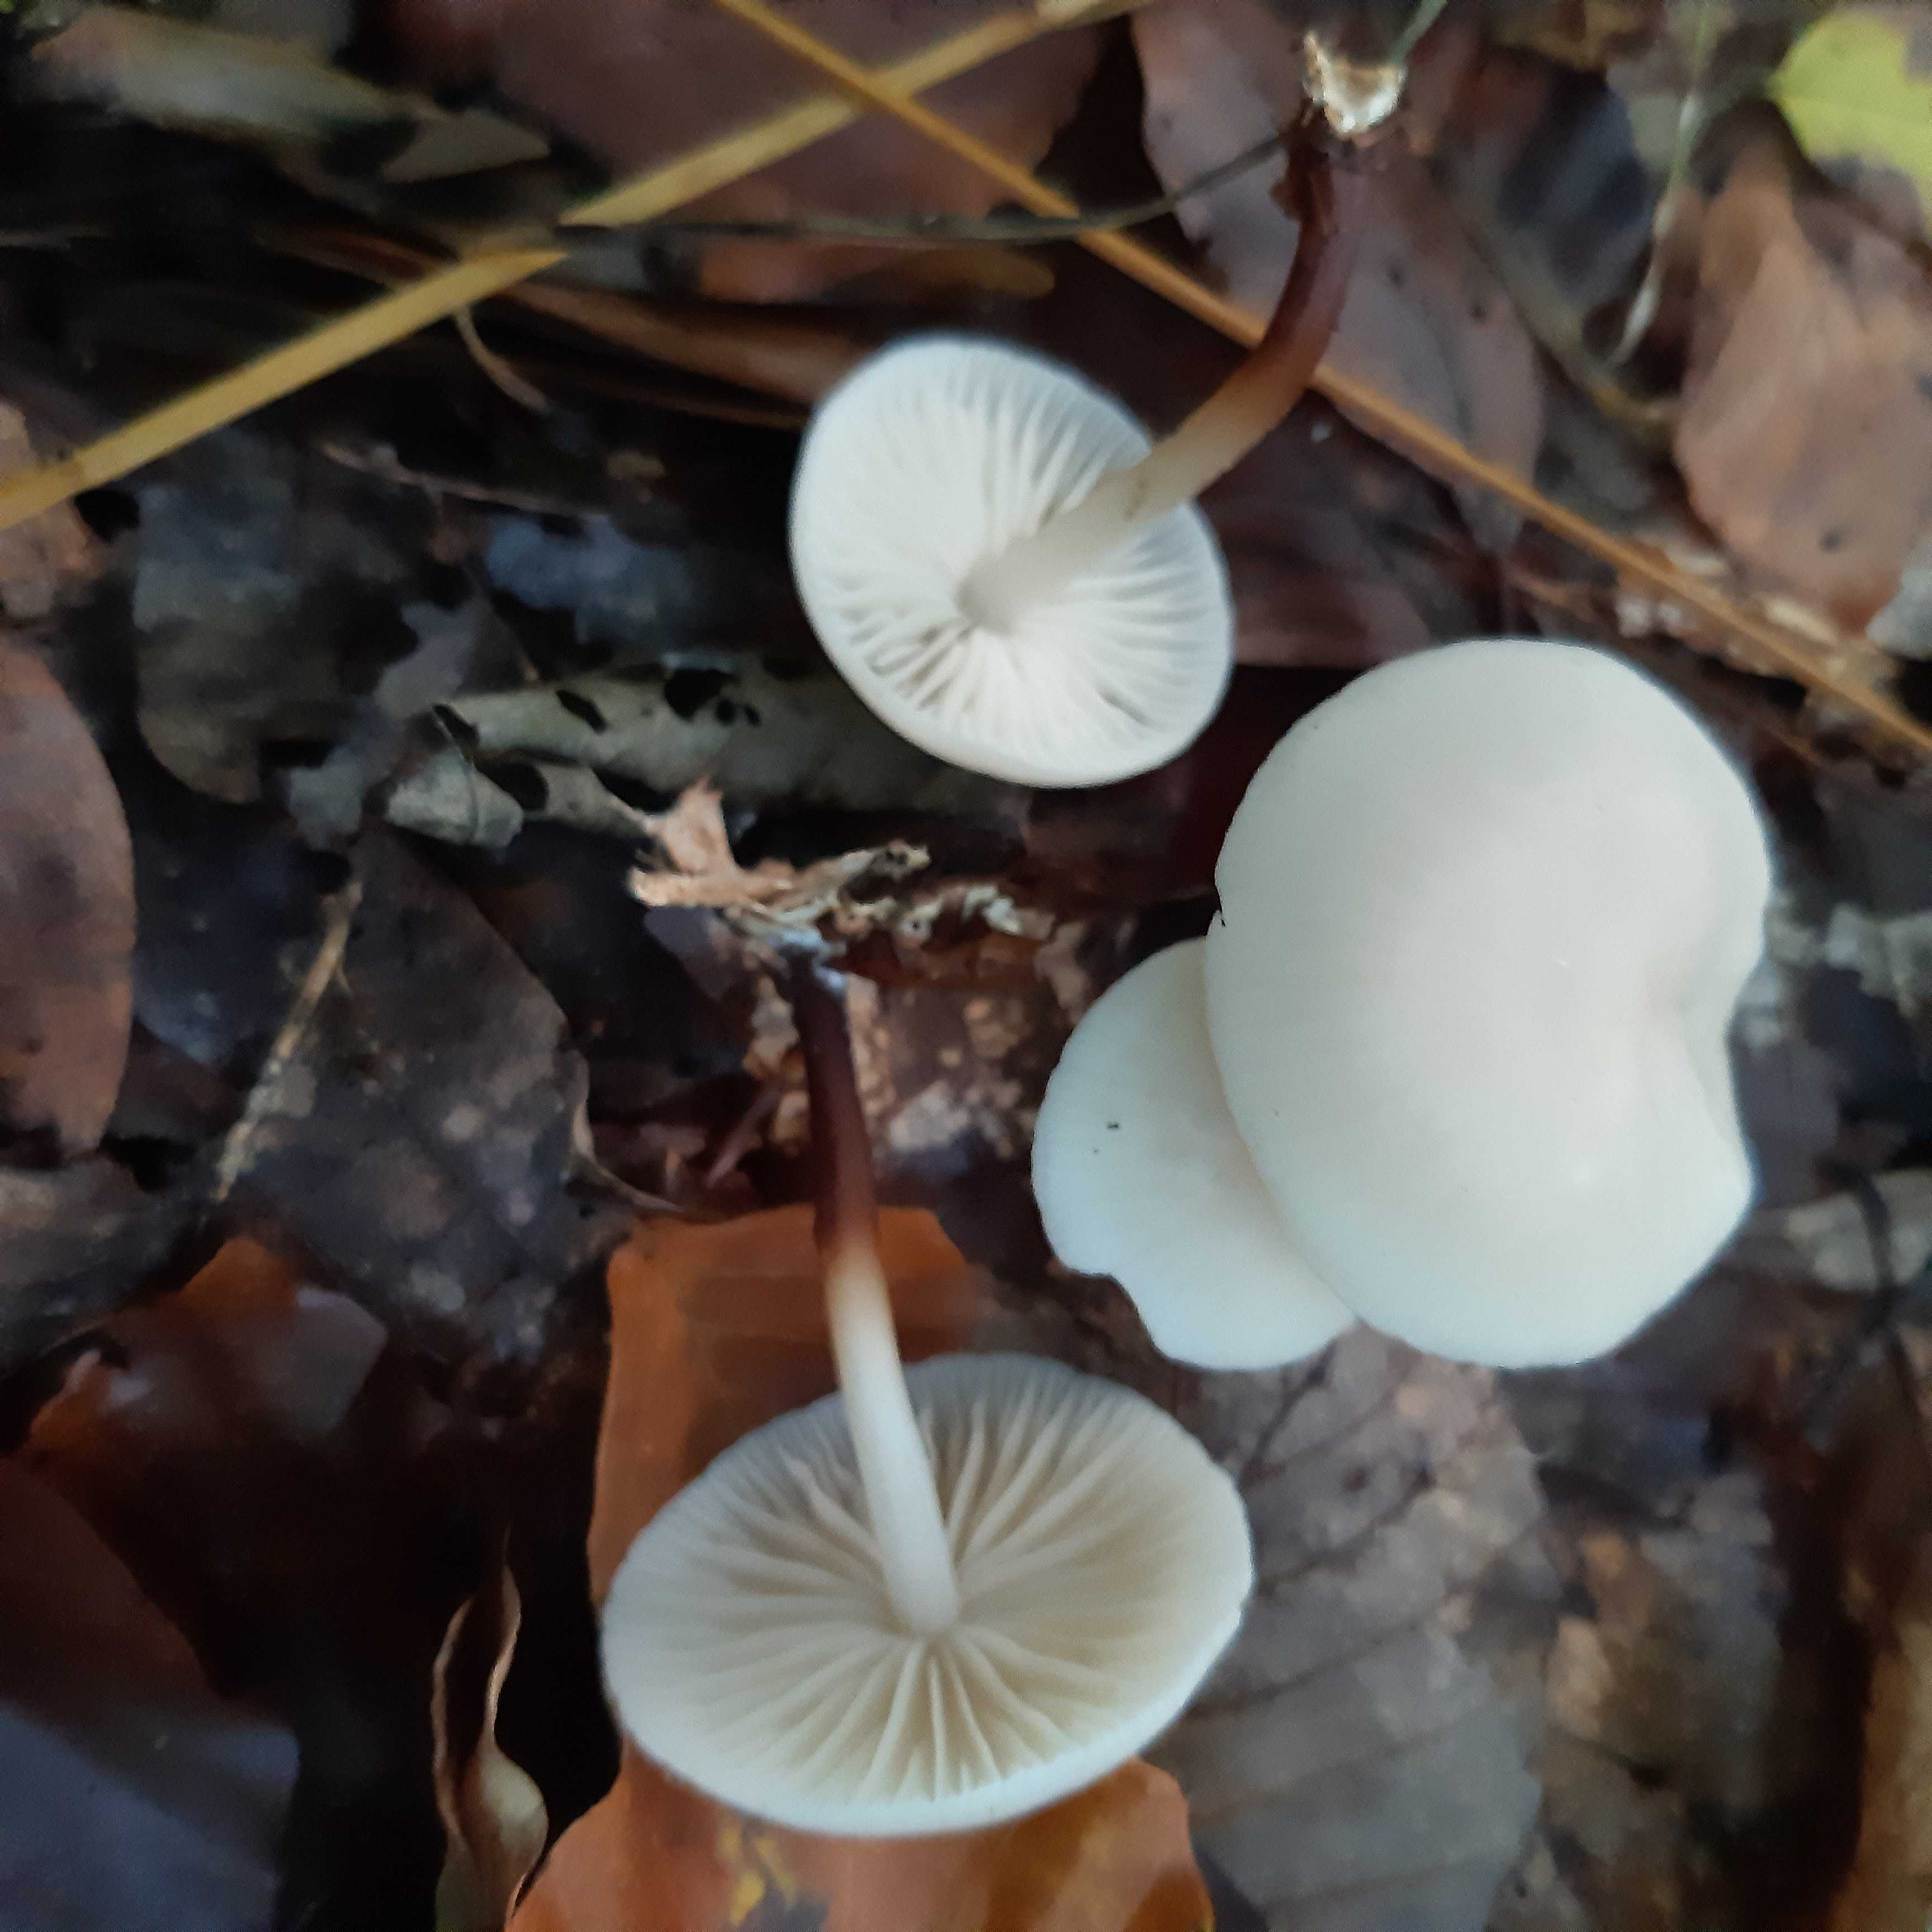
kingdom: Fungi
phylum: Basidiomycota
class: Agaricomycetes
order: Agaricales
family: Marasmiaceae
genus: Marasmius
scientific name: Marasmius wynneae
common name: hvælvet bruskhat
